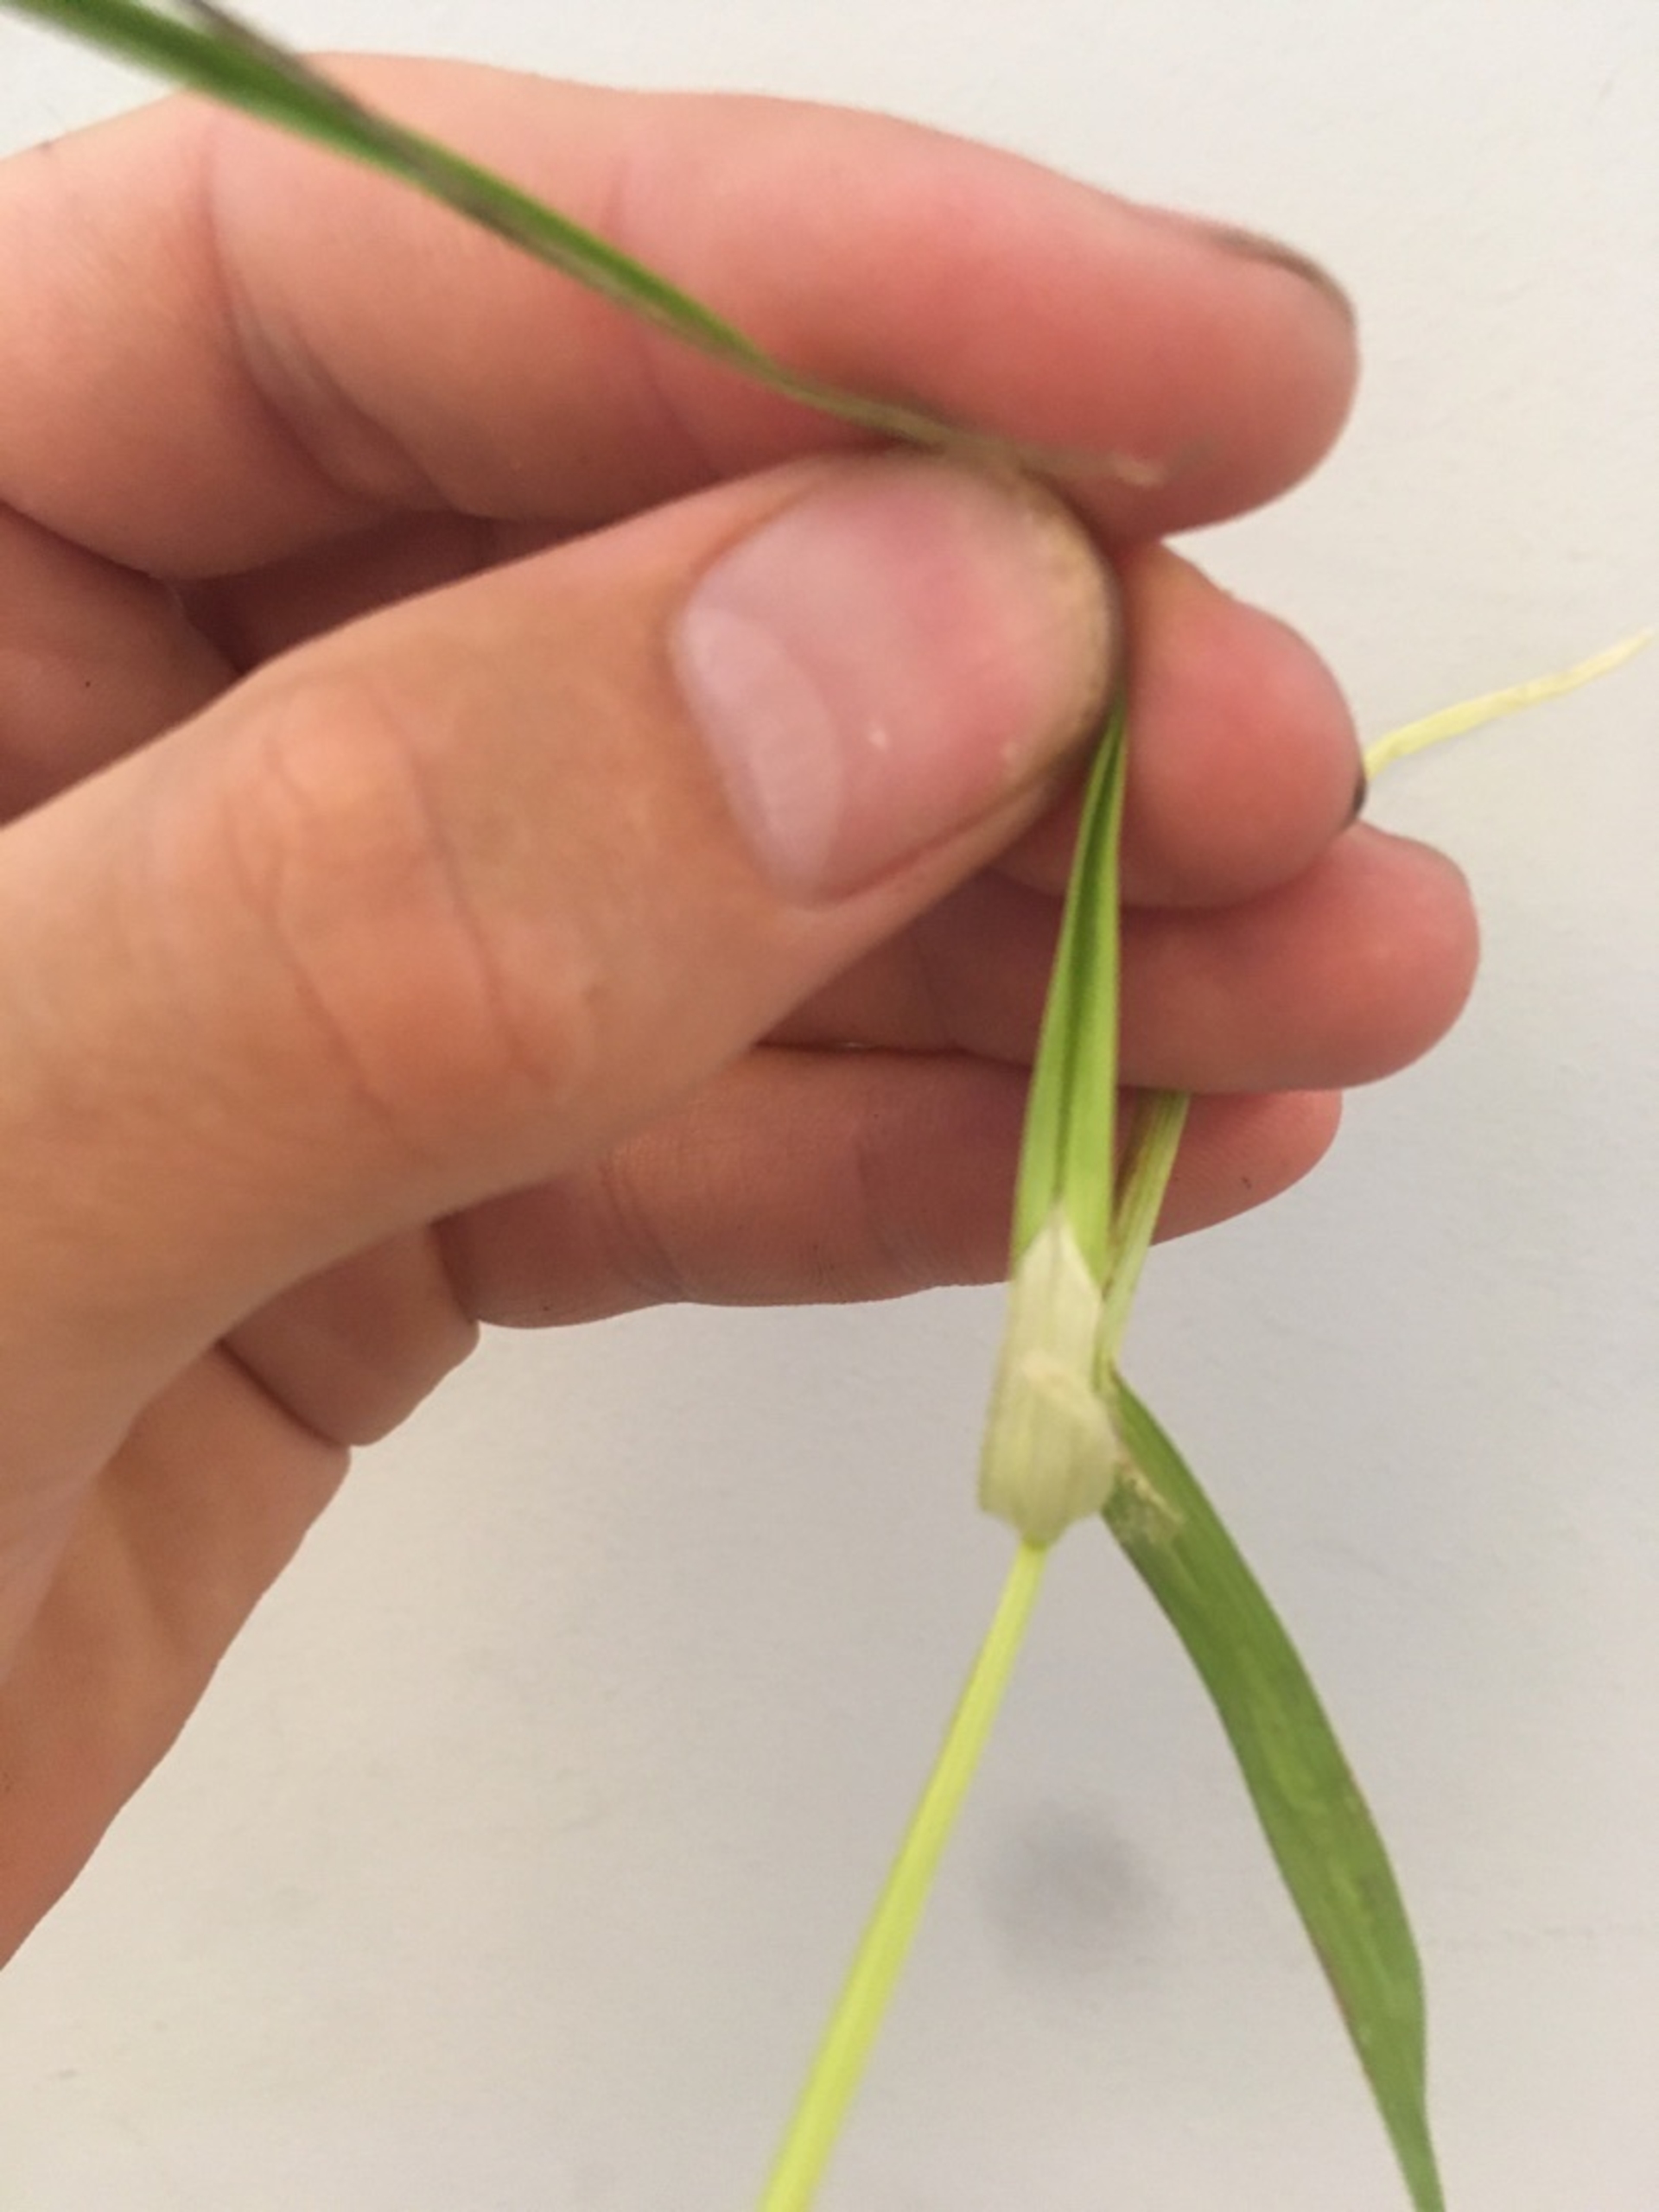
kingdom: Plantae
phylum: Tracheophyta
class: Liliopsida
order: Poales
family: Cyperaceae
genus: Carex
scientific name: Carex otrubae
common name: Sylt-star
